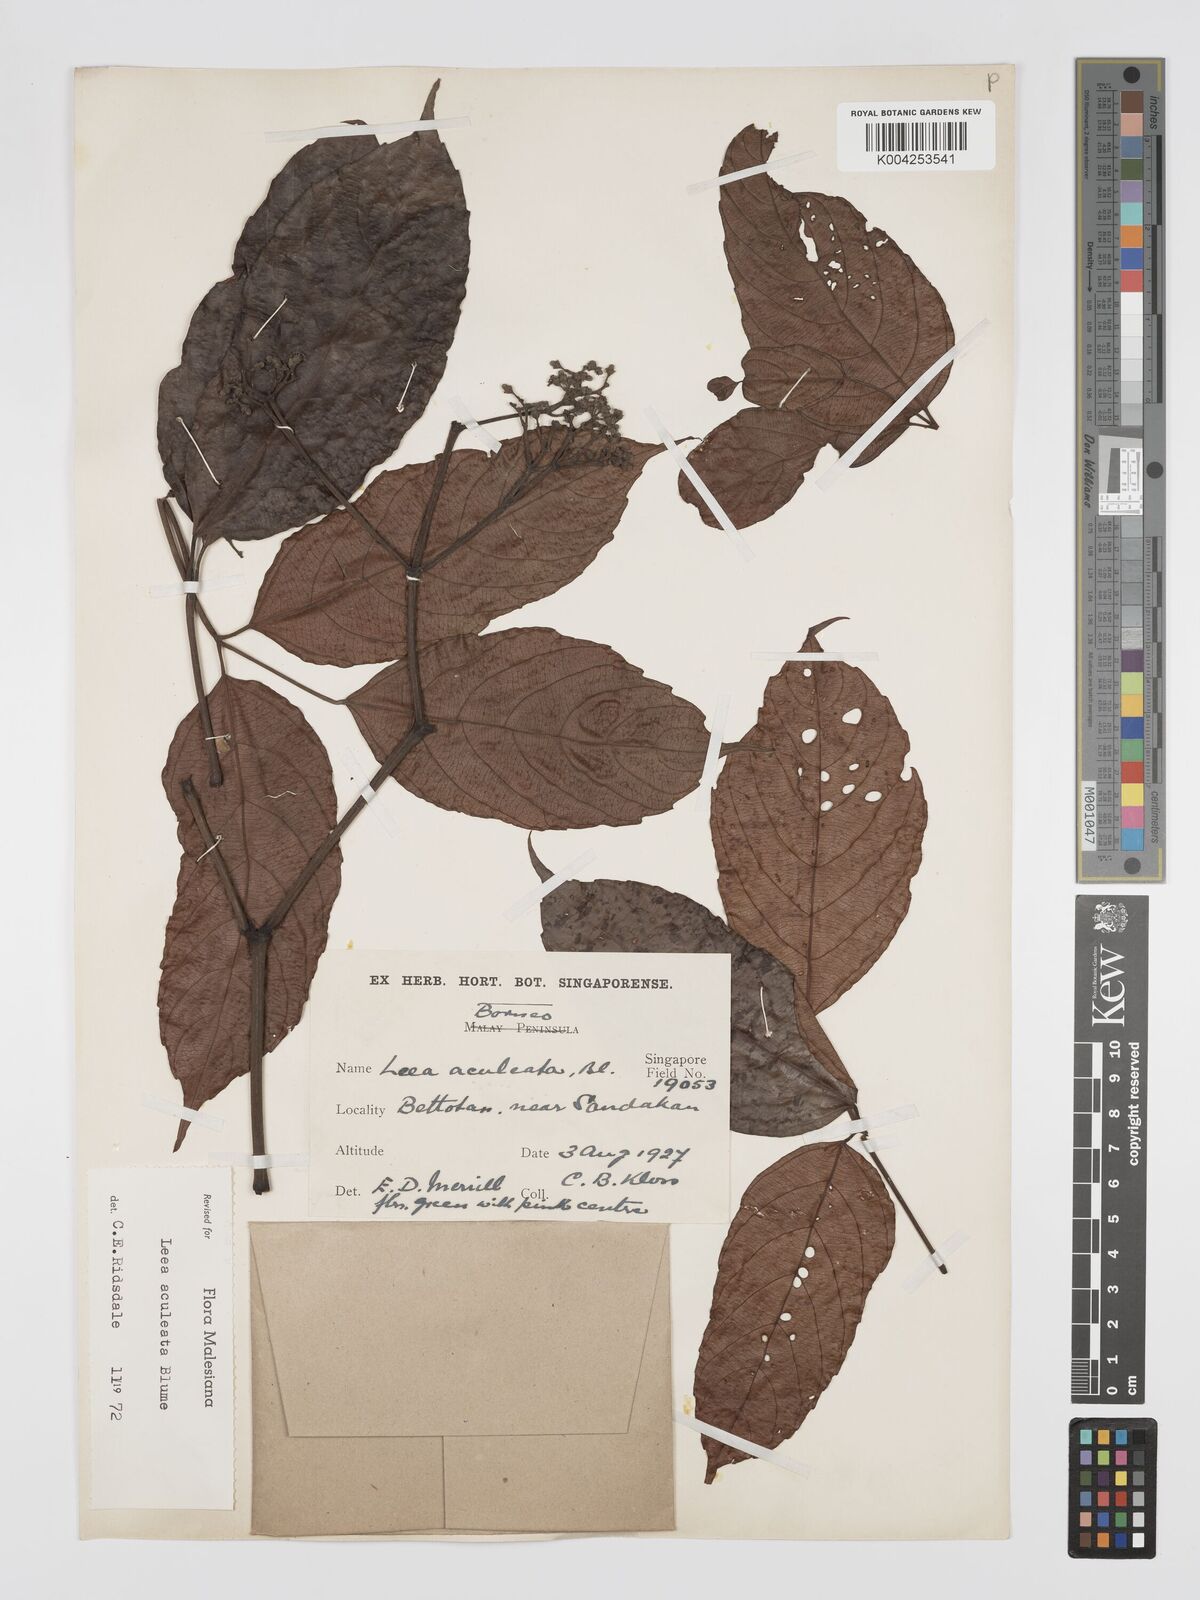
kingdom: Plantae
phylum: Tracheophyta
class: Magnoliopsida
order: Vitales
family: Vitaceae
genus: Leea
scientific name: Leea aculeata
